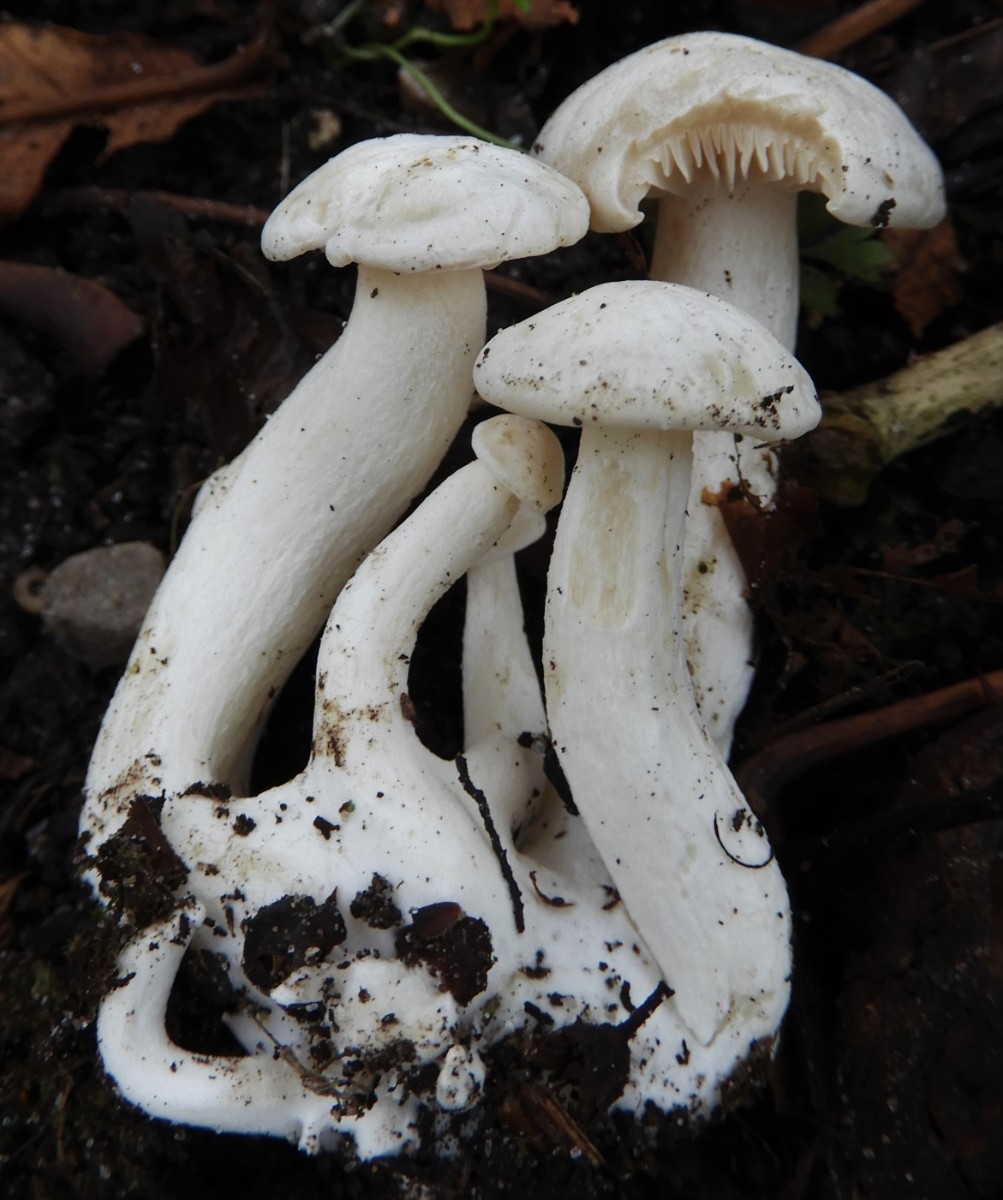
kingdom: Fungi
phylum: Basidiomycota
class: Agaricomycetes
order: Agaricales
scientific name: Agaricales
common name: champignonordenen
